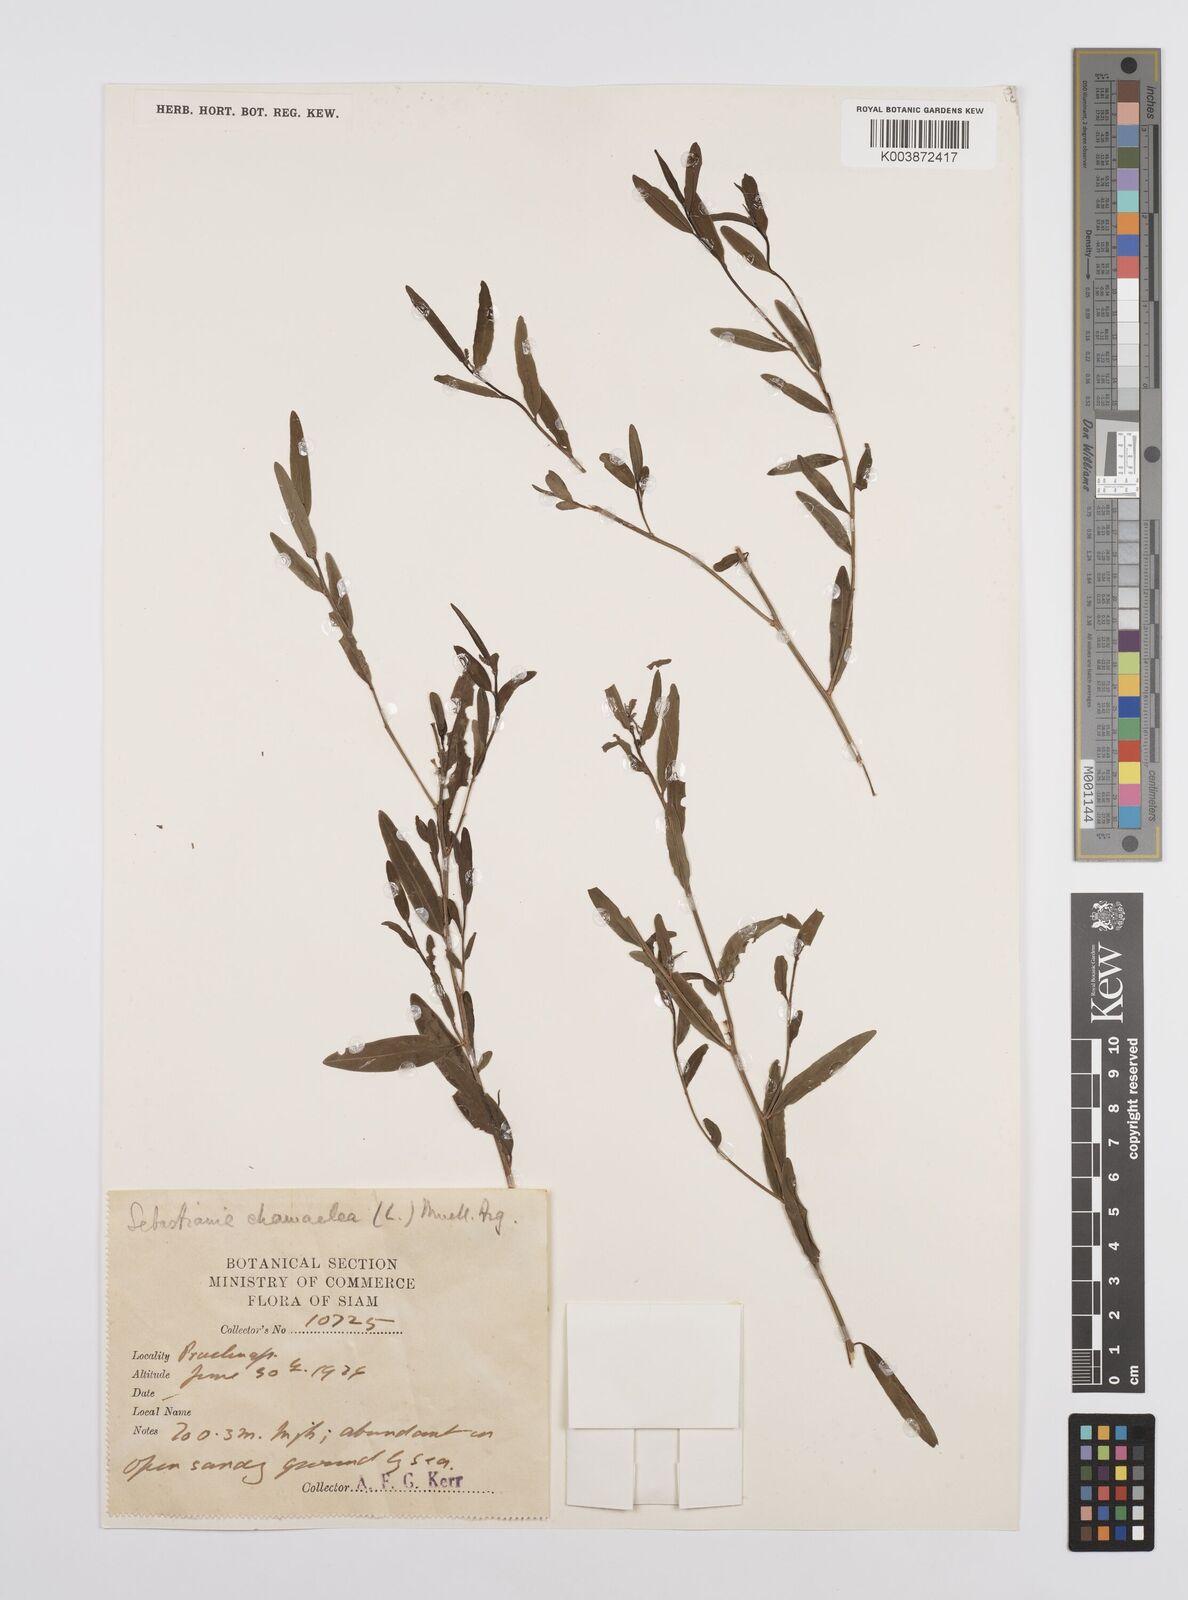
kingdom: Plantae
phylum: Tracheophyta
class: Magnoliopsida
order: Malpighiales
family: Euphorbiaceae
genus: Microstachys
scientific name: Microstachys chamaelea
